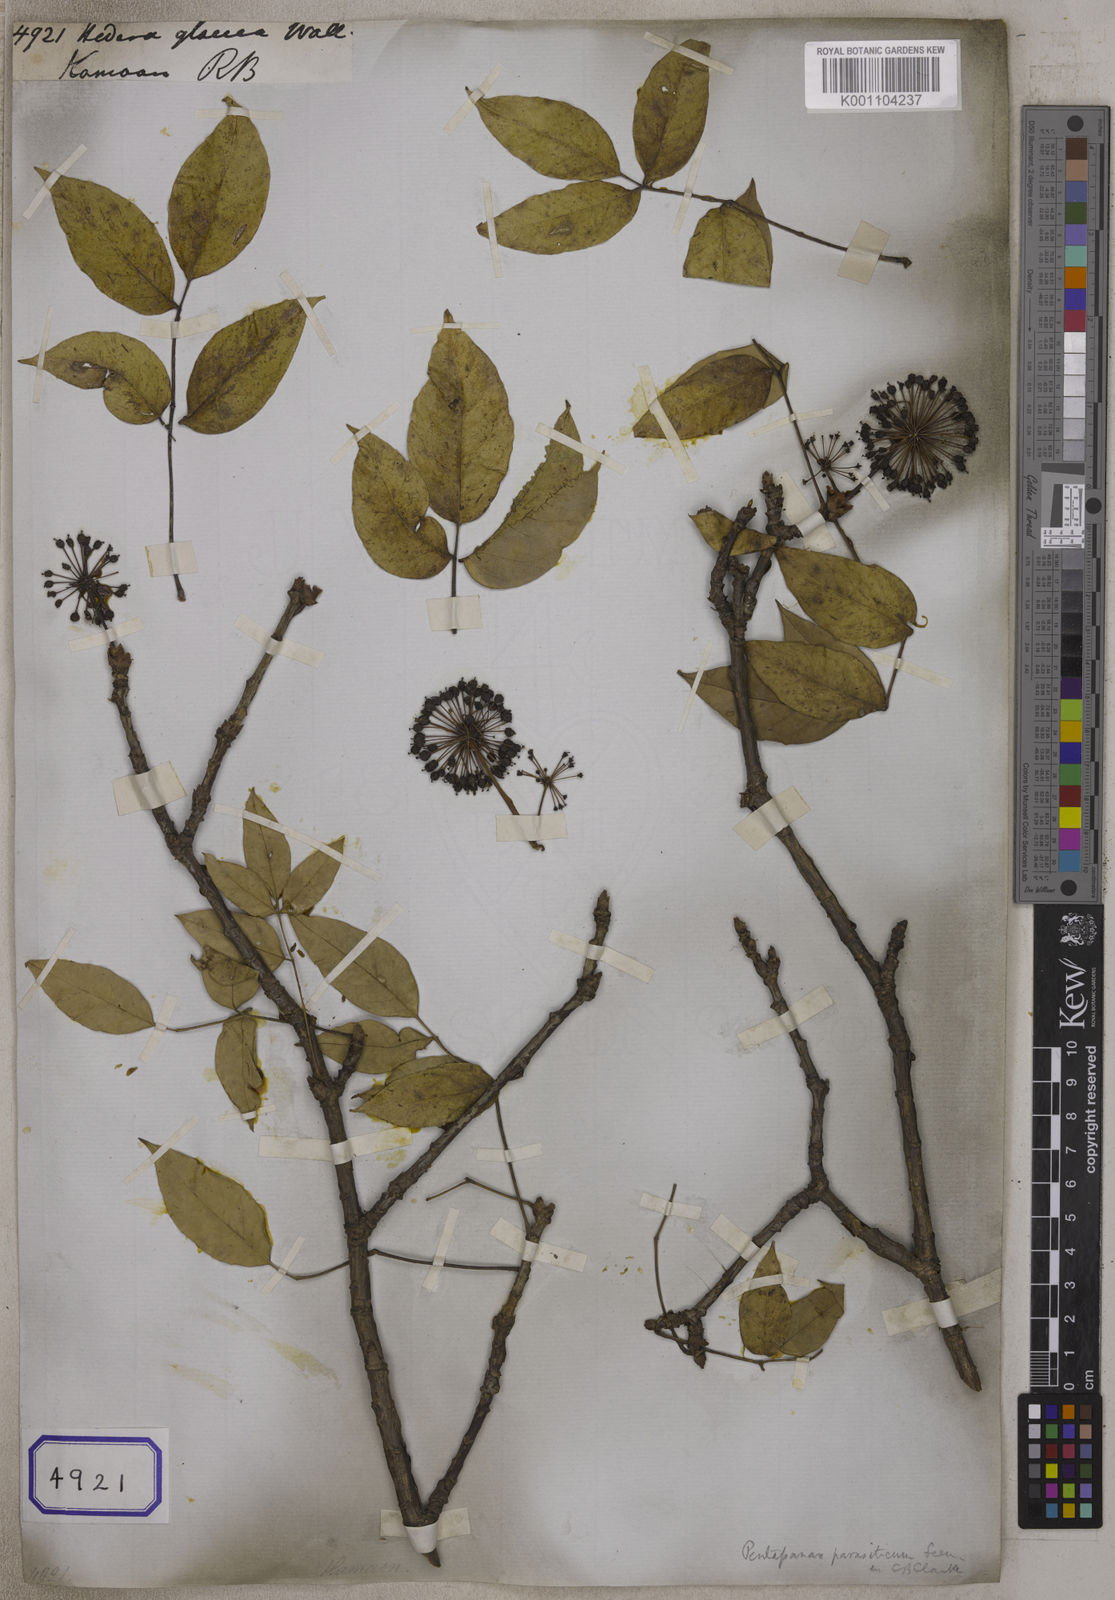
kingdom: Plantae
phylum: Tracheophyta
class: Magnoliopsida
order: Apiales
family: Araliaceae
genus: Hedera
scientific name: Hedera
